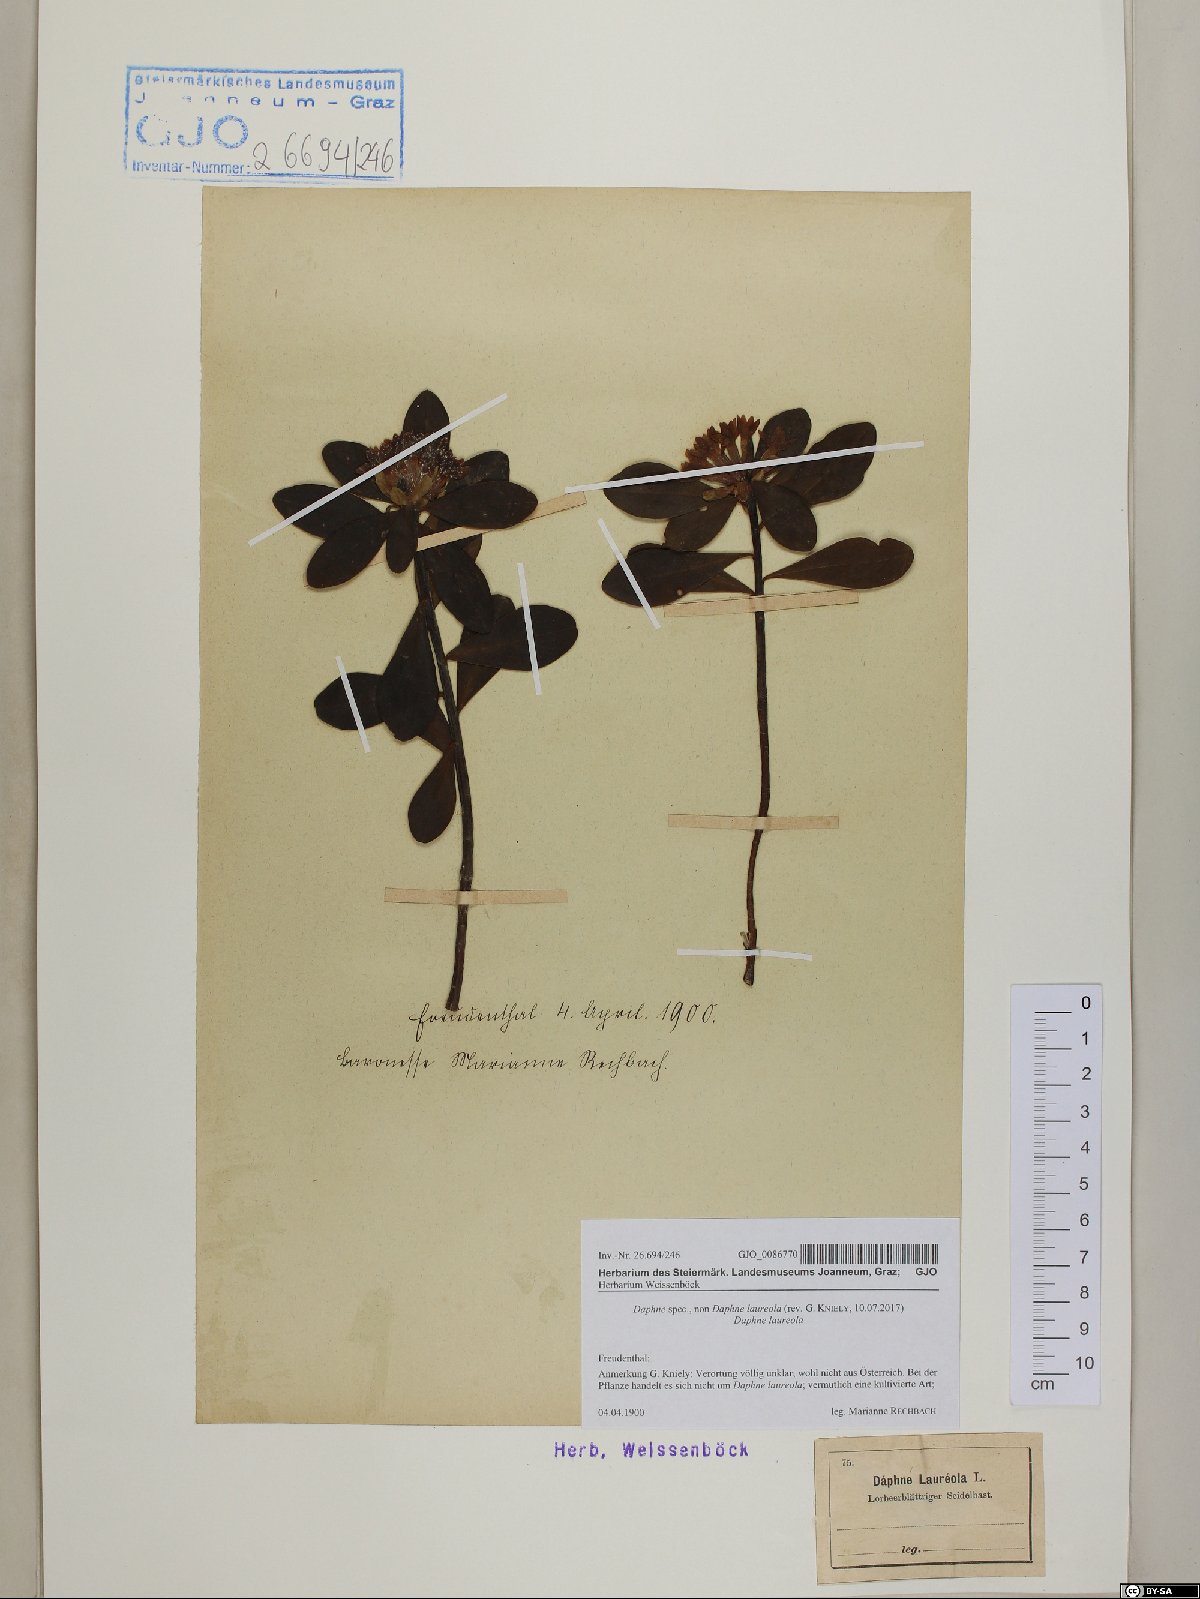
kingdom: Plantae
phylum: Tracheophyta
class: Magnoliopsida
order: Malvales
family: Thymelaeaceae
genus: Daphne
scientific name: Daphne
